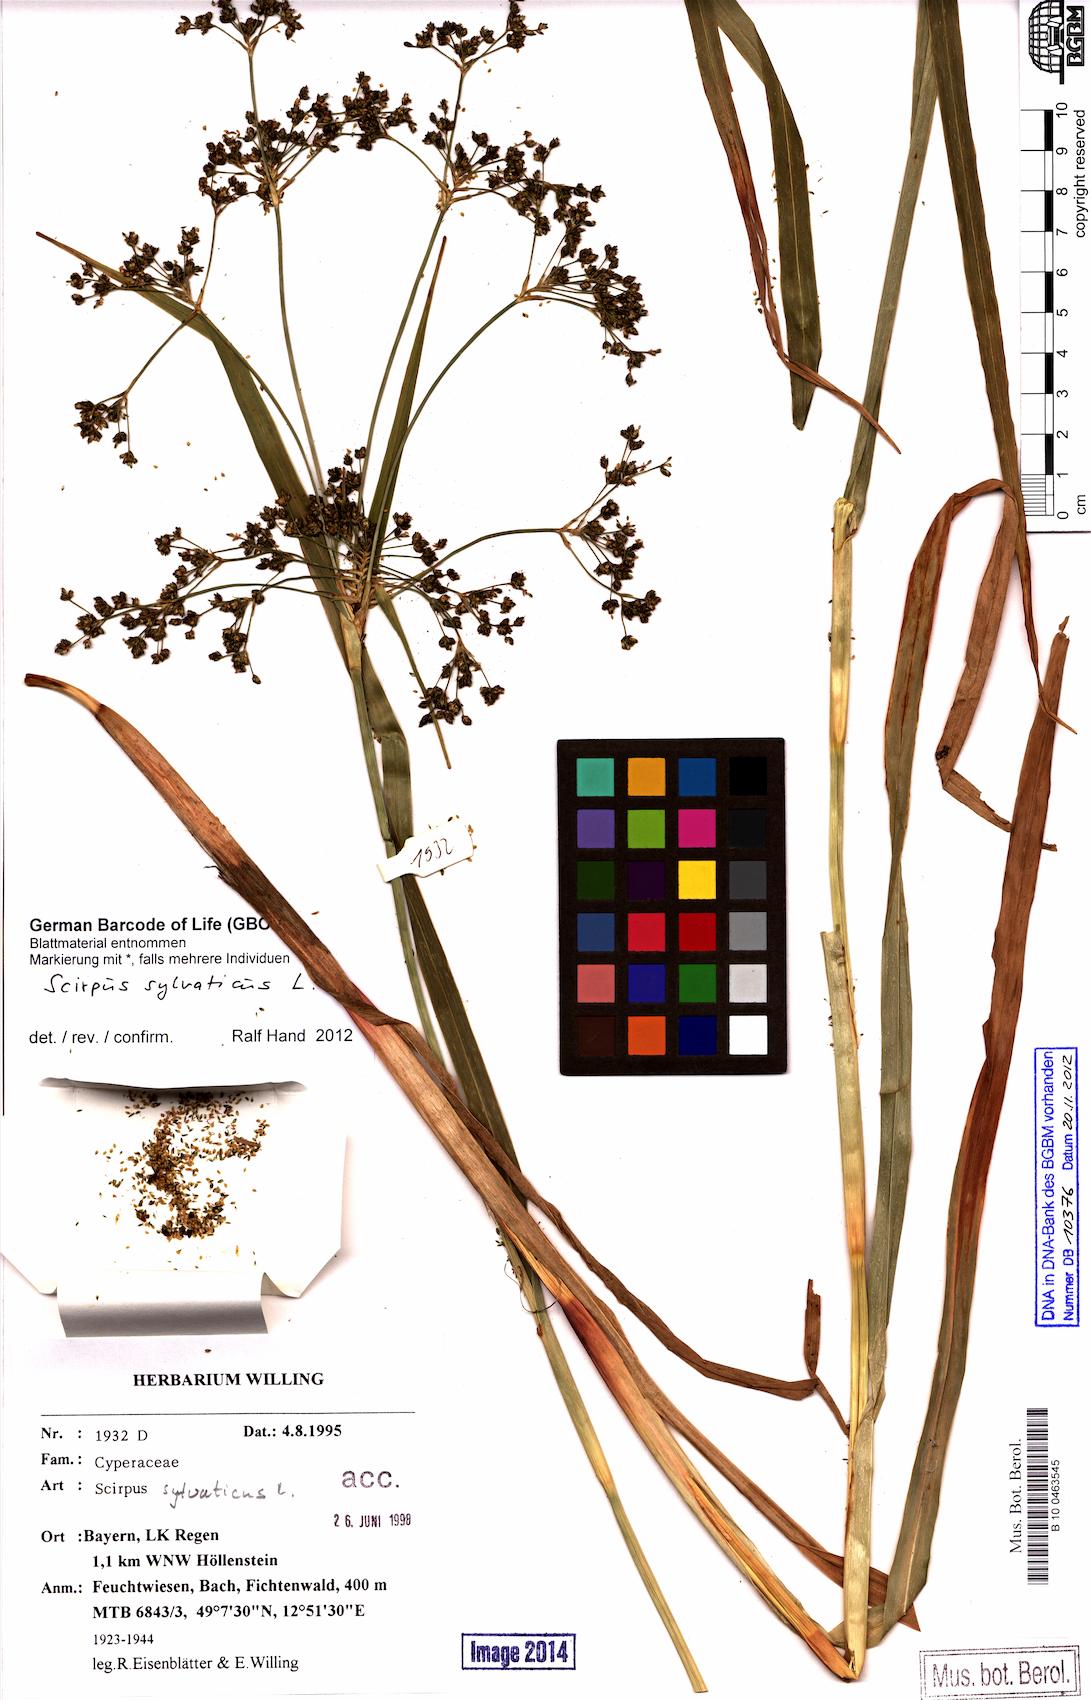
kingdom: Plantae
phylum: Tracheophyta
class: Liliopsida
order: Poales
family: Cyperaceae
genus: Scirpus
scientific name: Scirpus sylvaticus
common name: Wood club-rush
